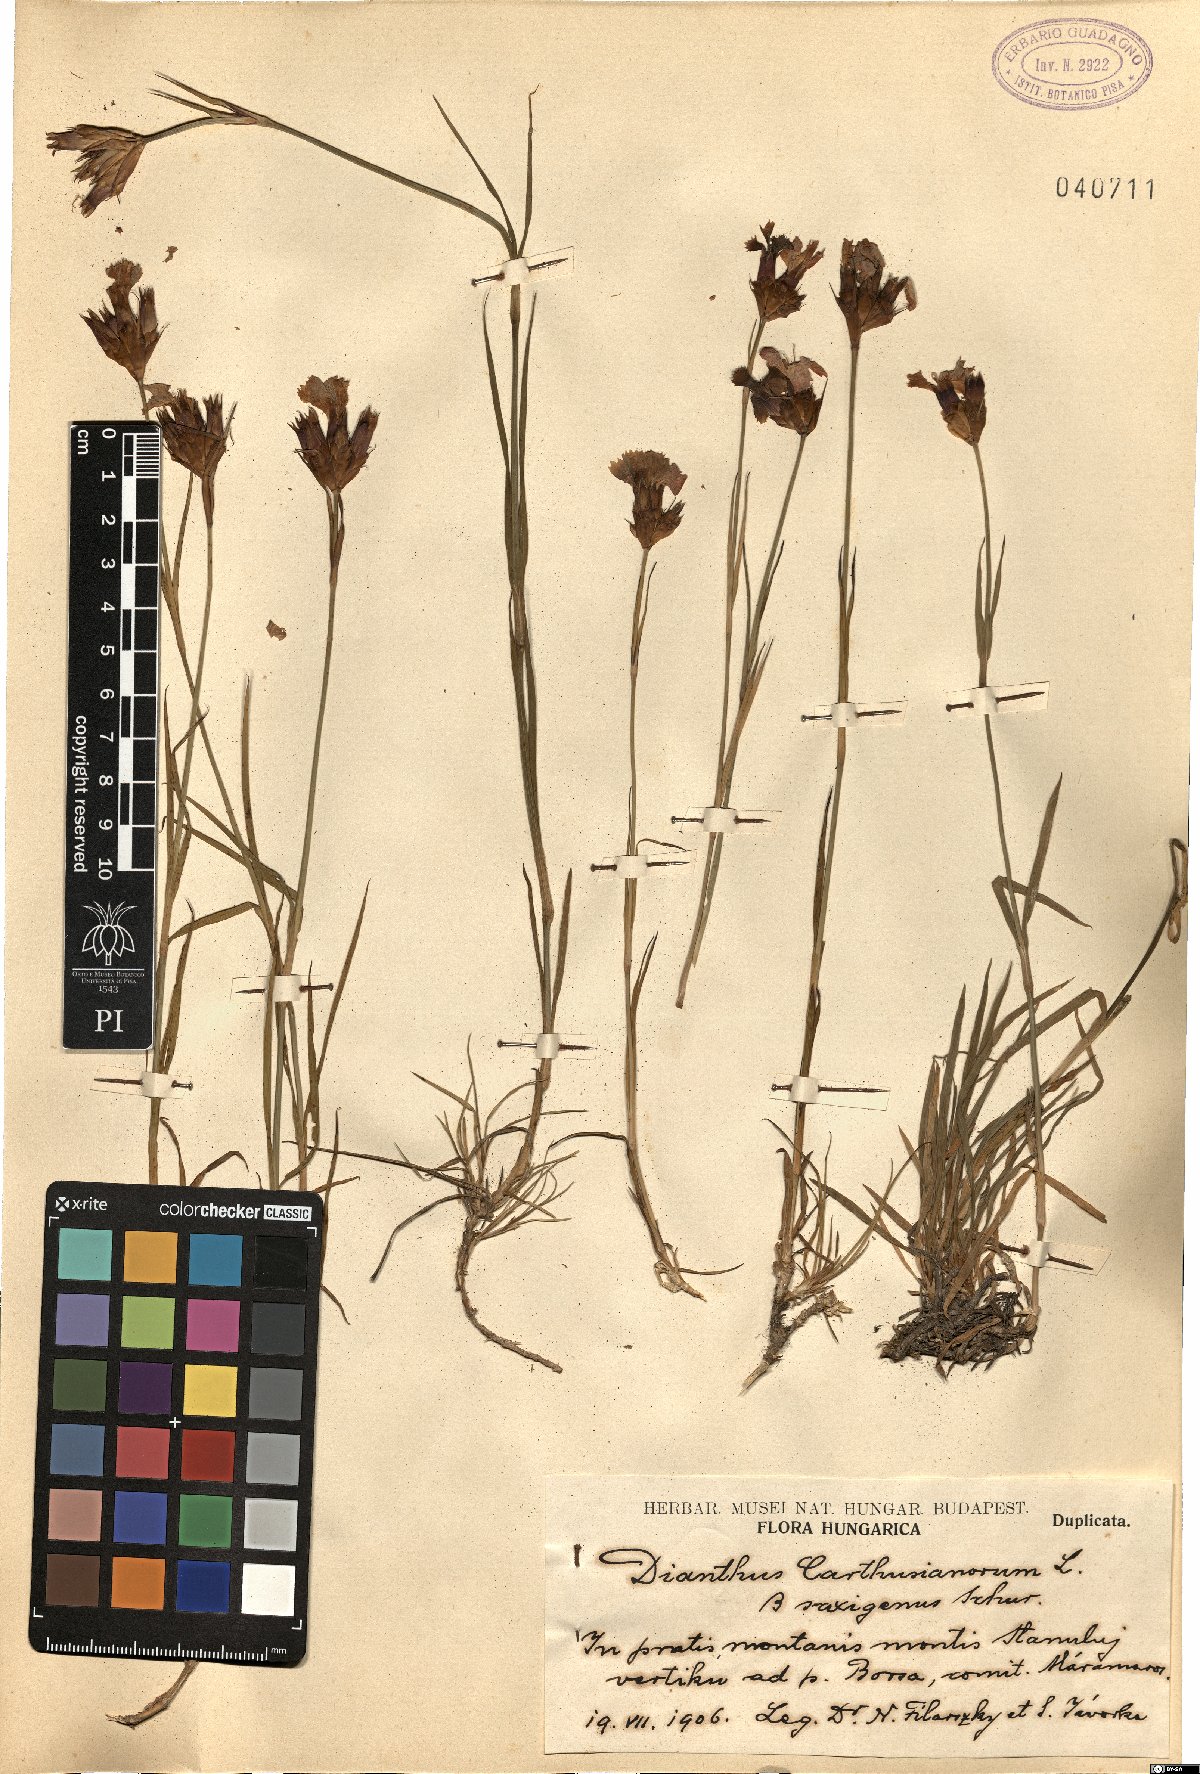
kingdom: Plantae
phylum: Tracheophyta
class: Magnoliopsida
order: Caryophyllales
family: Caryophyllaceae
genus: Dianthus
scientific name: Dianthus carthusianorum
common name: Carthusian pink
